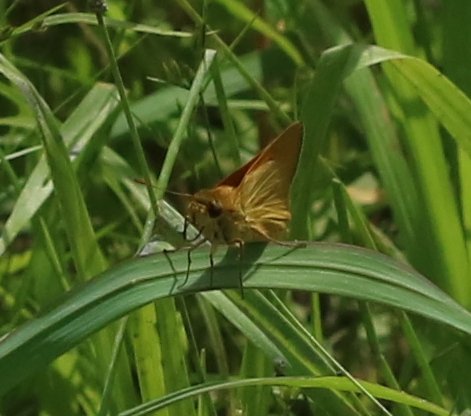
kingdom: Animalia
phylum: Arthropoda
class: Insecta
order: Lepidoptera
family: Hesperiidae
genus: Ancyloxypha
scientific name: Ancyloxypha numitor
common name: Least Skipper
